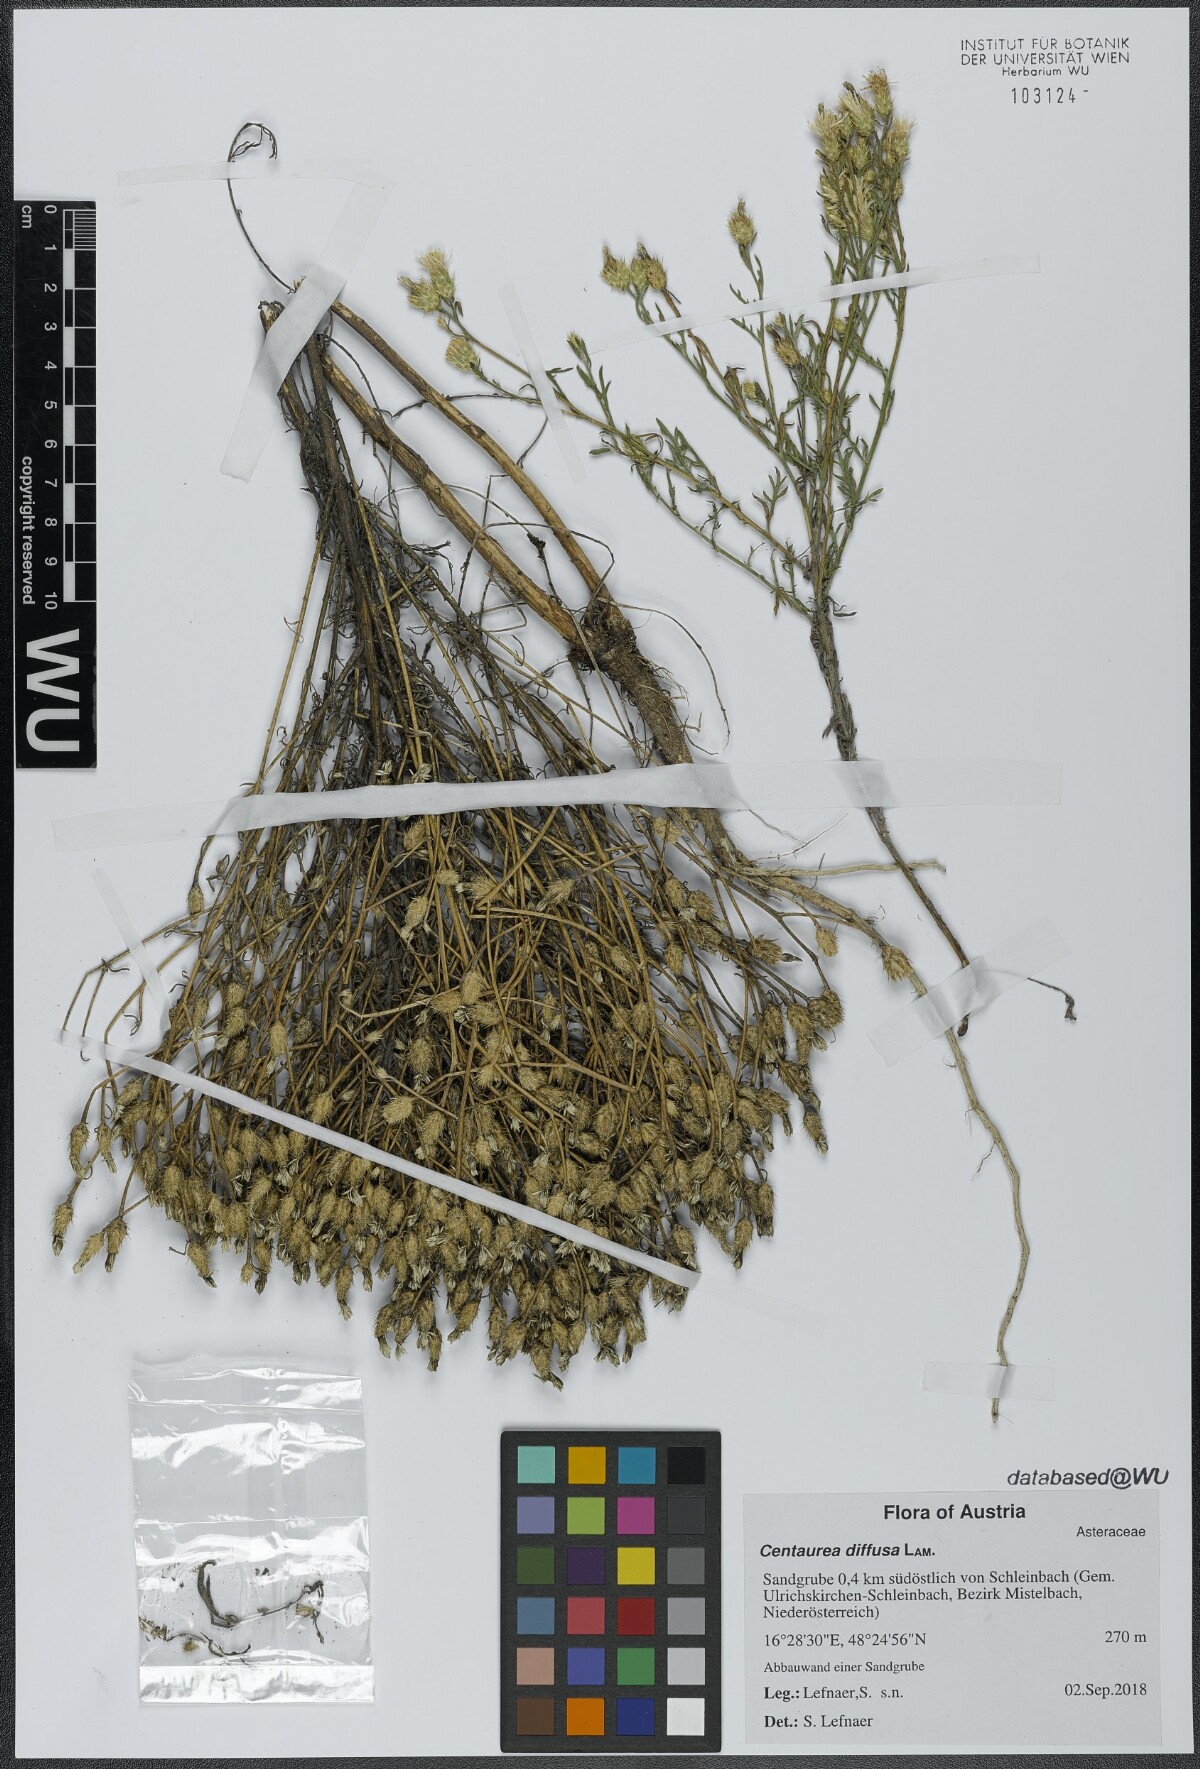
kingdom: Plantae
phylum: Tracheophyta
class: Magnoliopsida
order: Asterales
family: Asteraceae
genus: Centaurea
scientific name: Centaurea diffusa
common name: Diffuse knapweed
